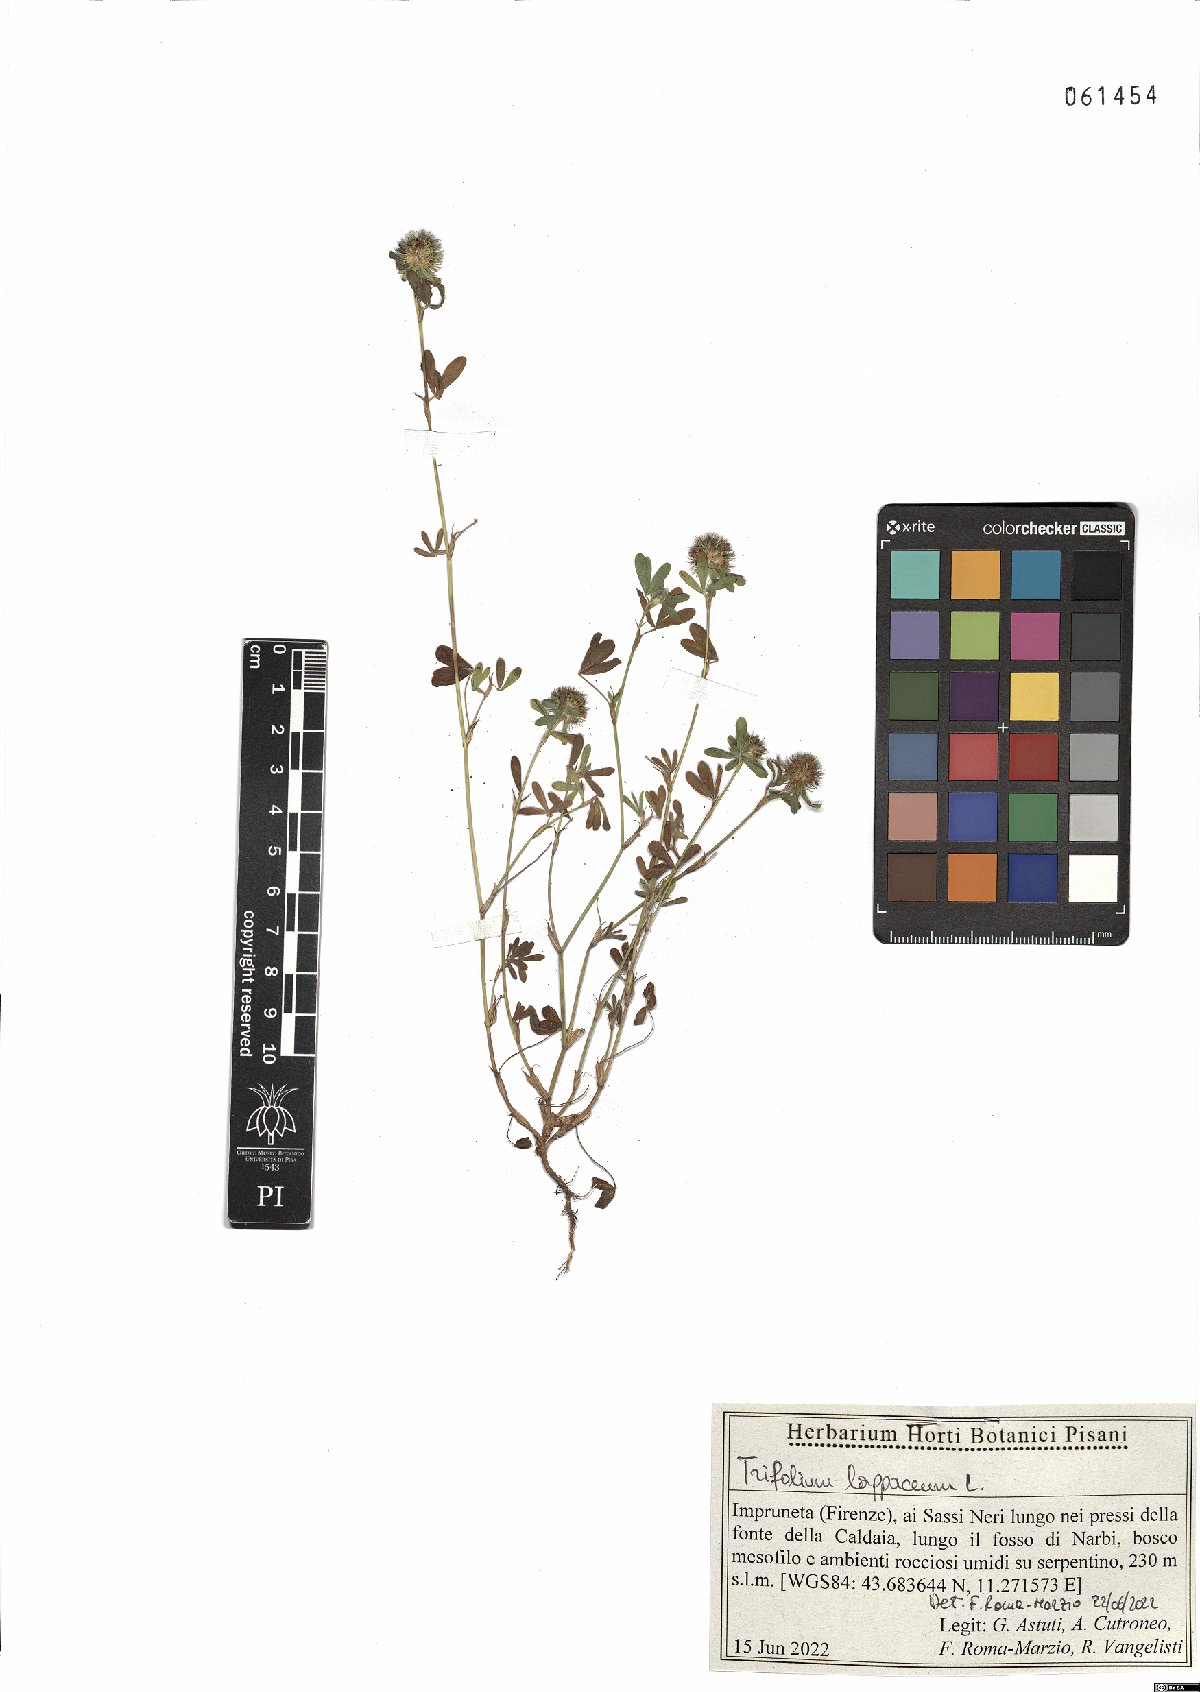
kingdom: Plantae
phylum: Tracheophyta
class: Magnoliopsida
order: Fabales
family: Fabaceae
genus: Trifolium
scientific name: Trifolium lappaceum
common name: Bur clover
